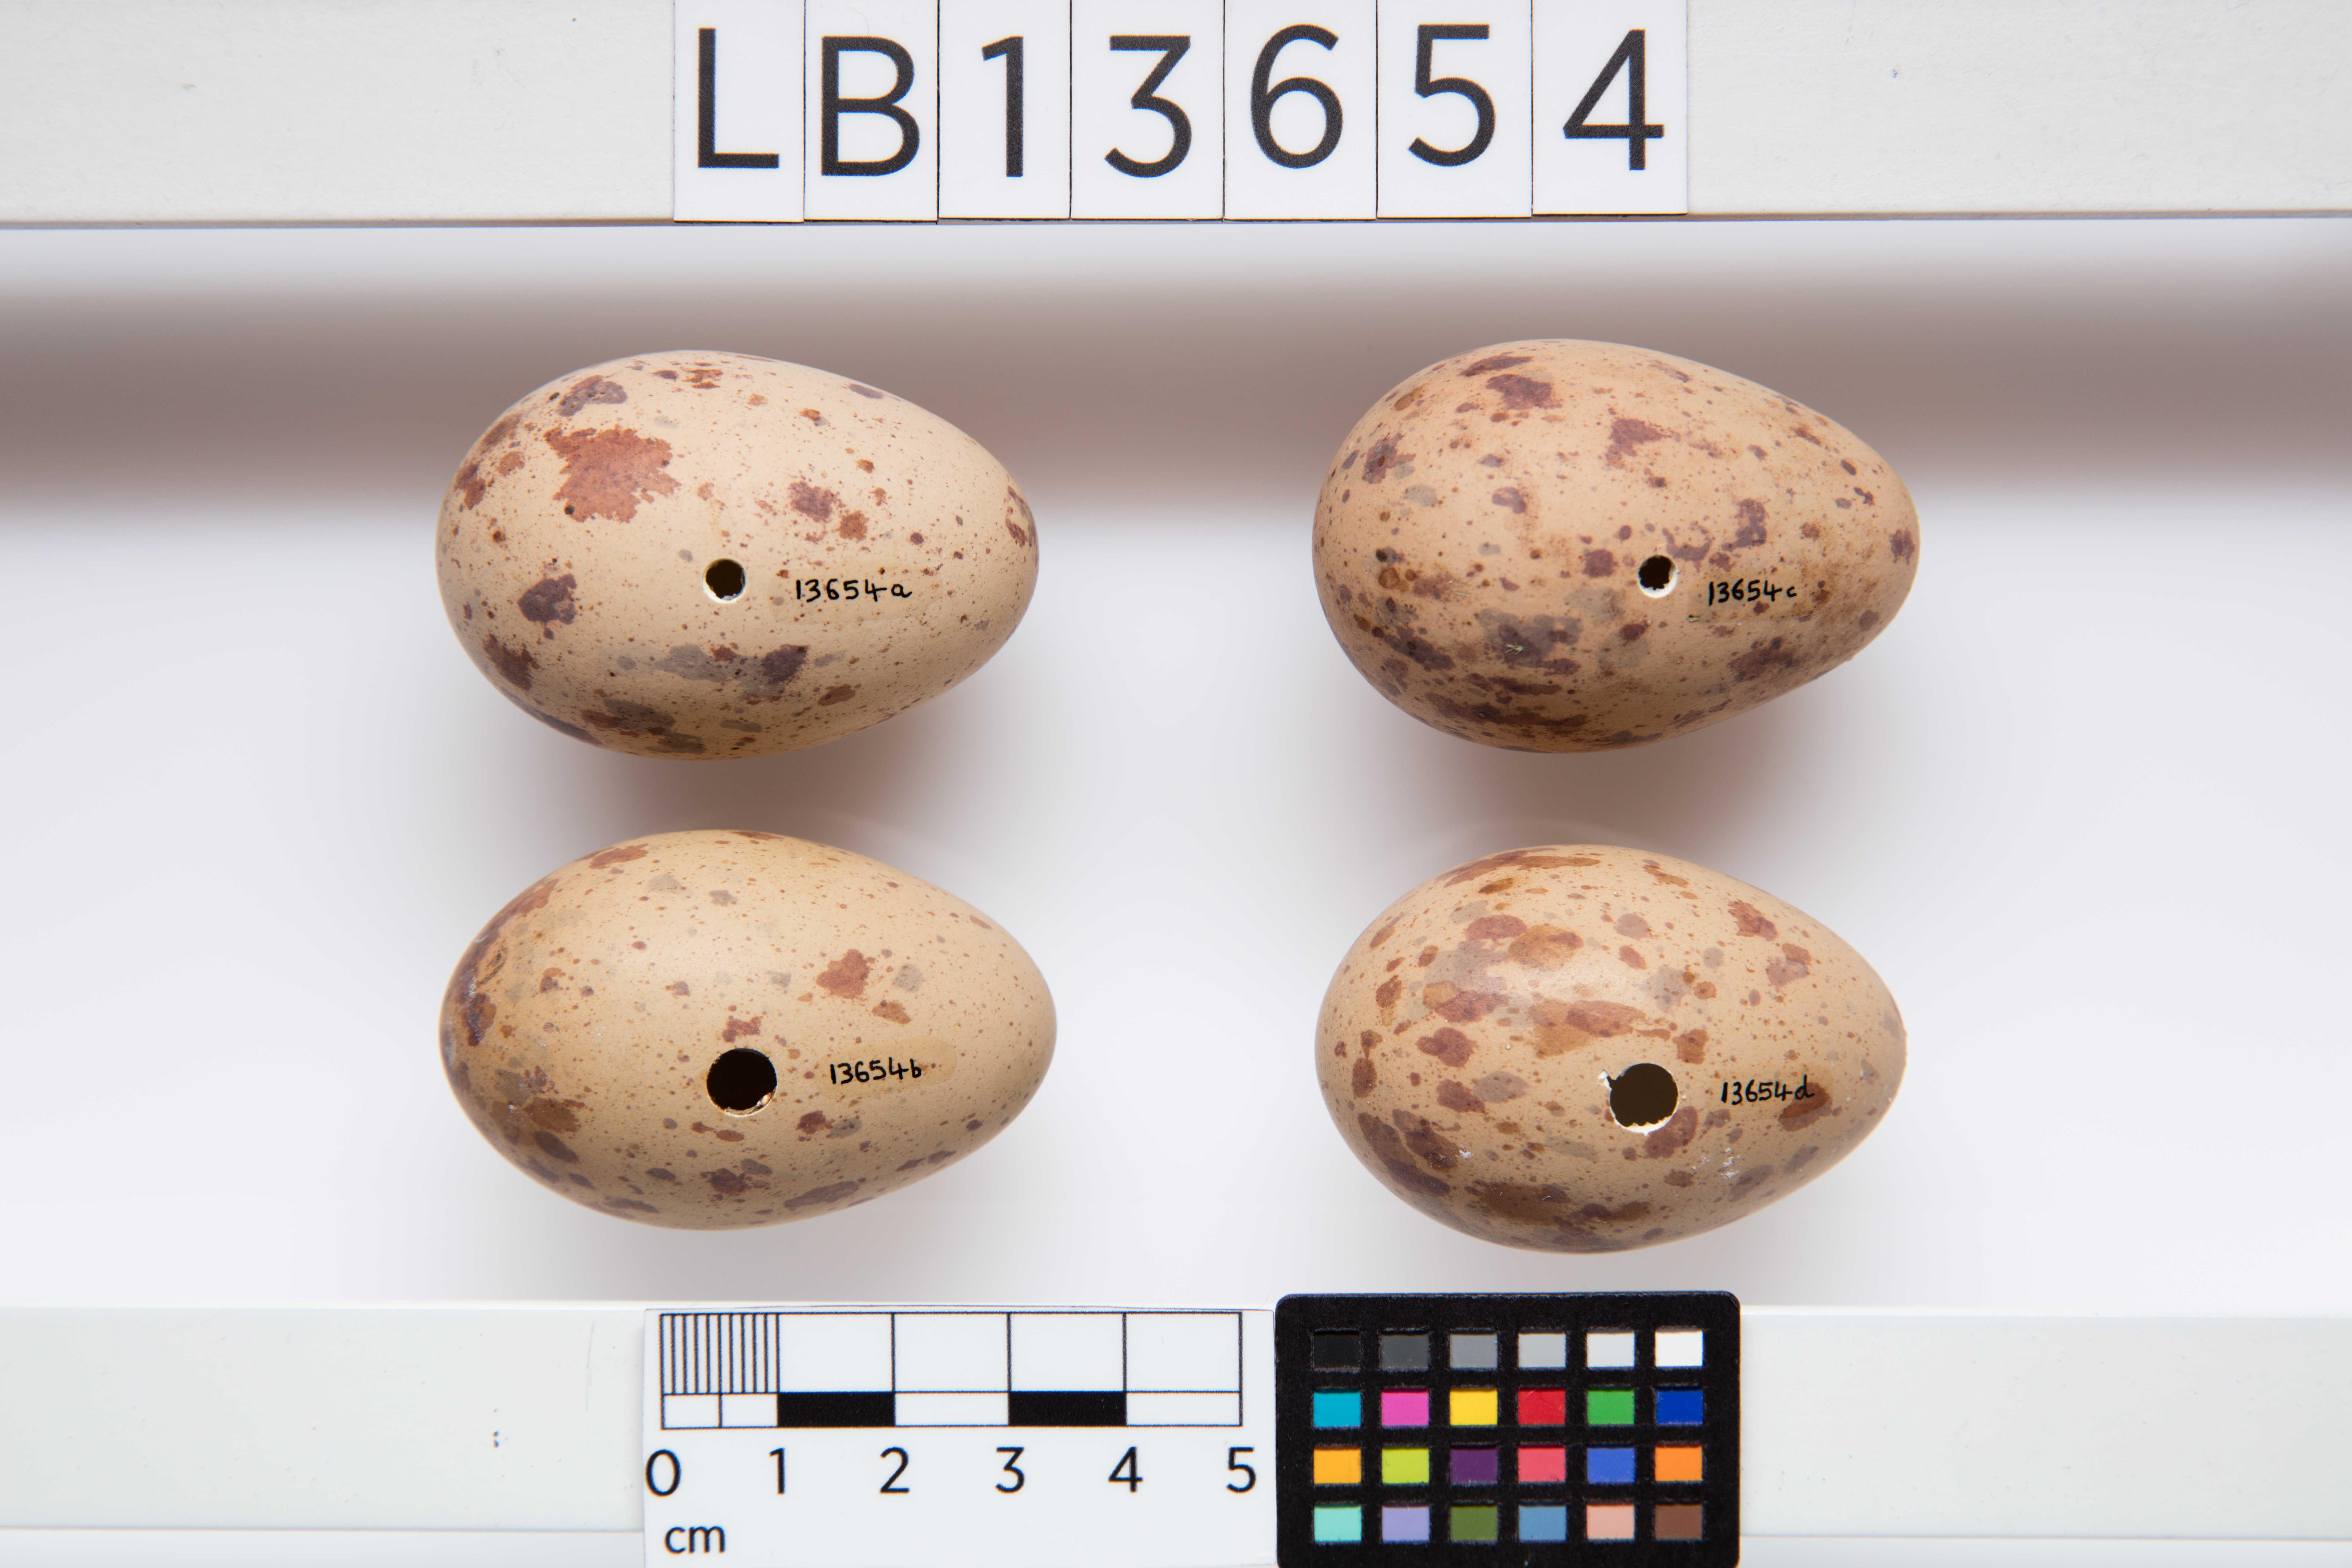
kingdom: Animalia
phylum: Chordata
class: Aves
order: Gruiformes
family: Rallidae
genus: Porphyrio
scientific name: Porphyrio melanotus
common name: Australasian swamphen
